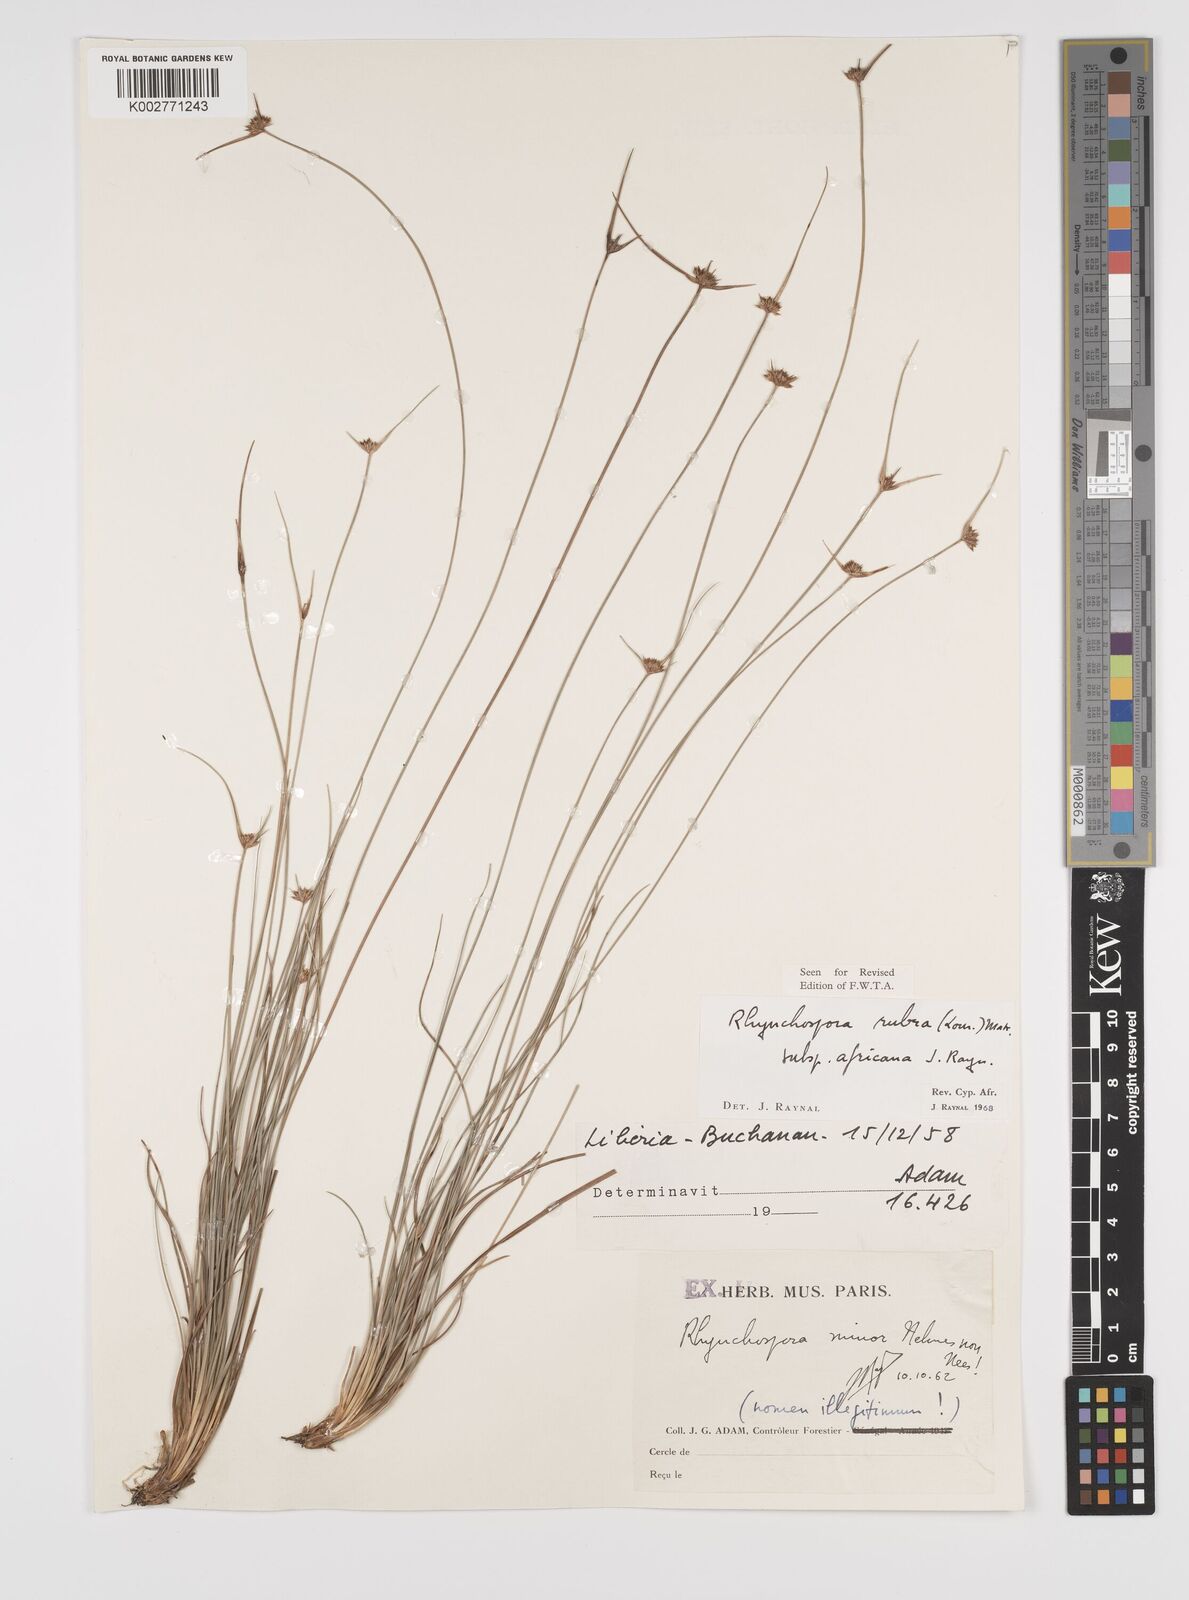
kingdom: Plantae
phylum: Tracheophyta
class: Liliopsida
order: Poales
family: Cyperaceae
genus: Rhynchospora
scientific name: Rhynchospora rubra
